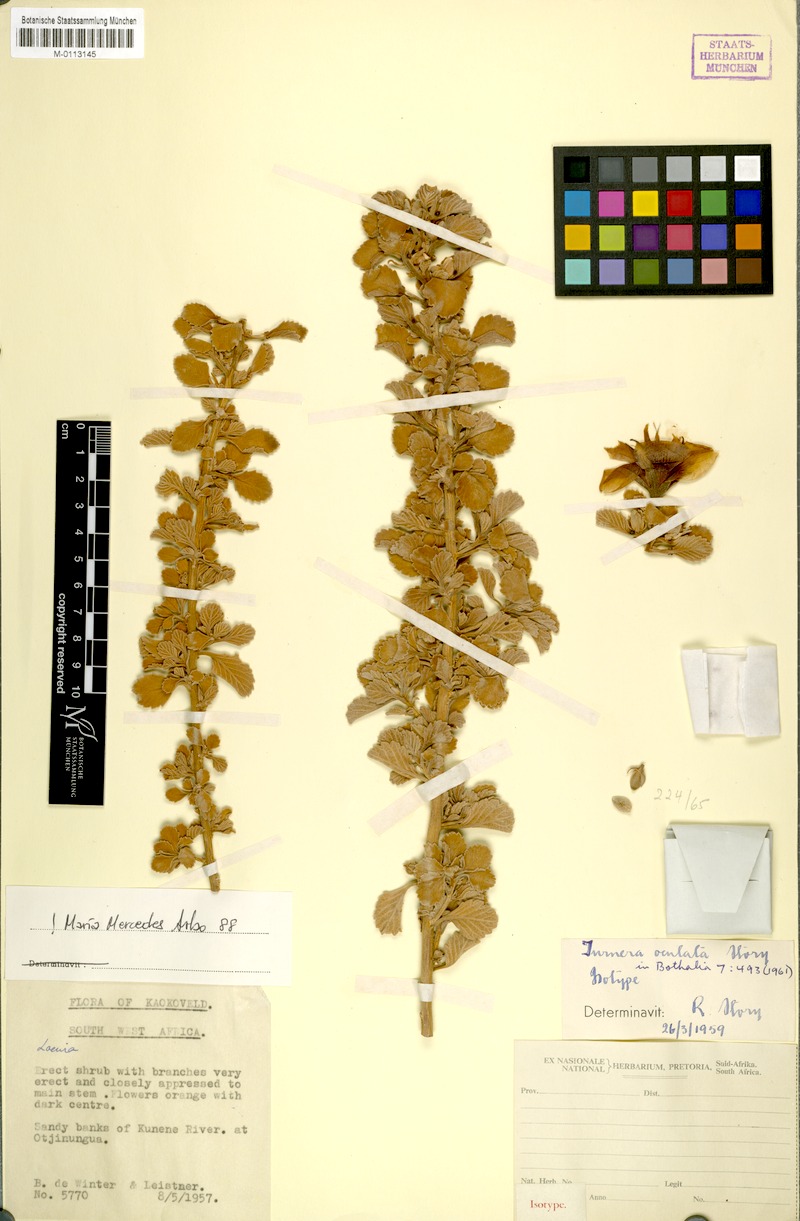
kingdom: Plantae
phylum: Tracheophyta
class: Magnoliopsida
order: Malpighiales
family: Turneraceae
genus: Turnera
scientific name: Turnera oculata
